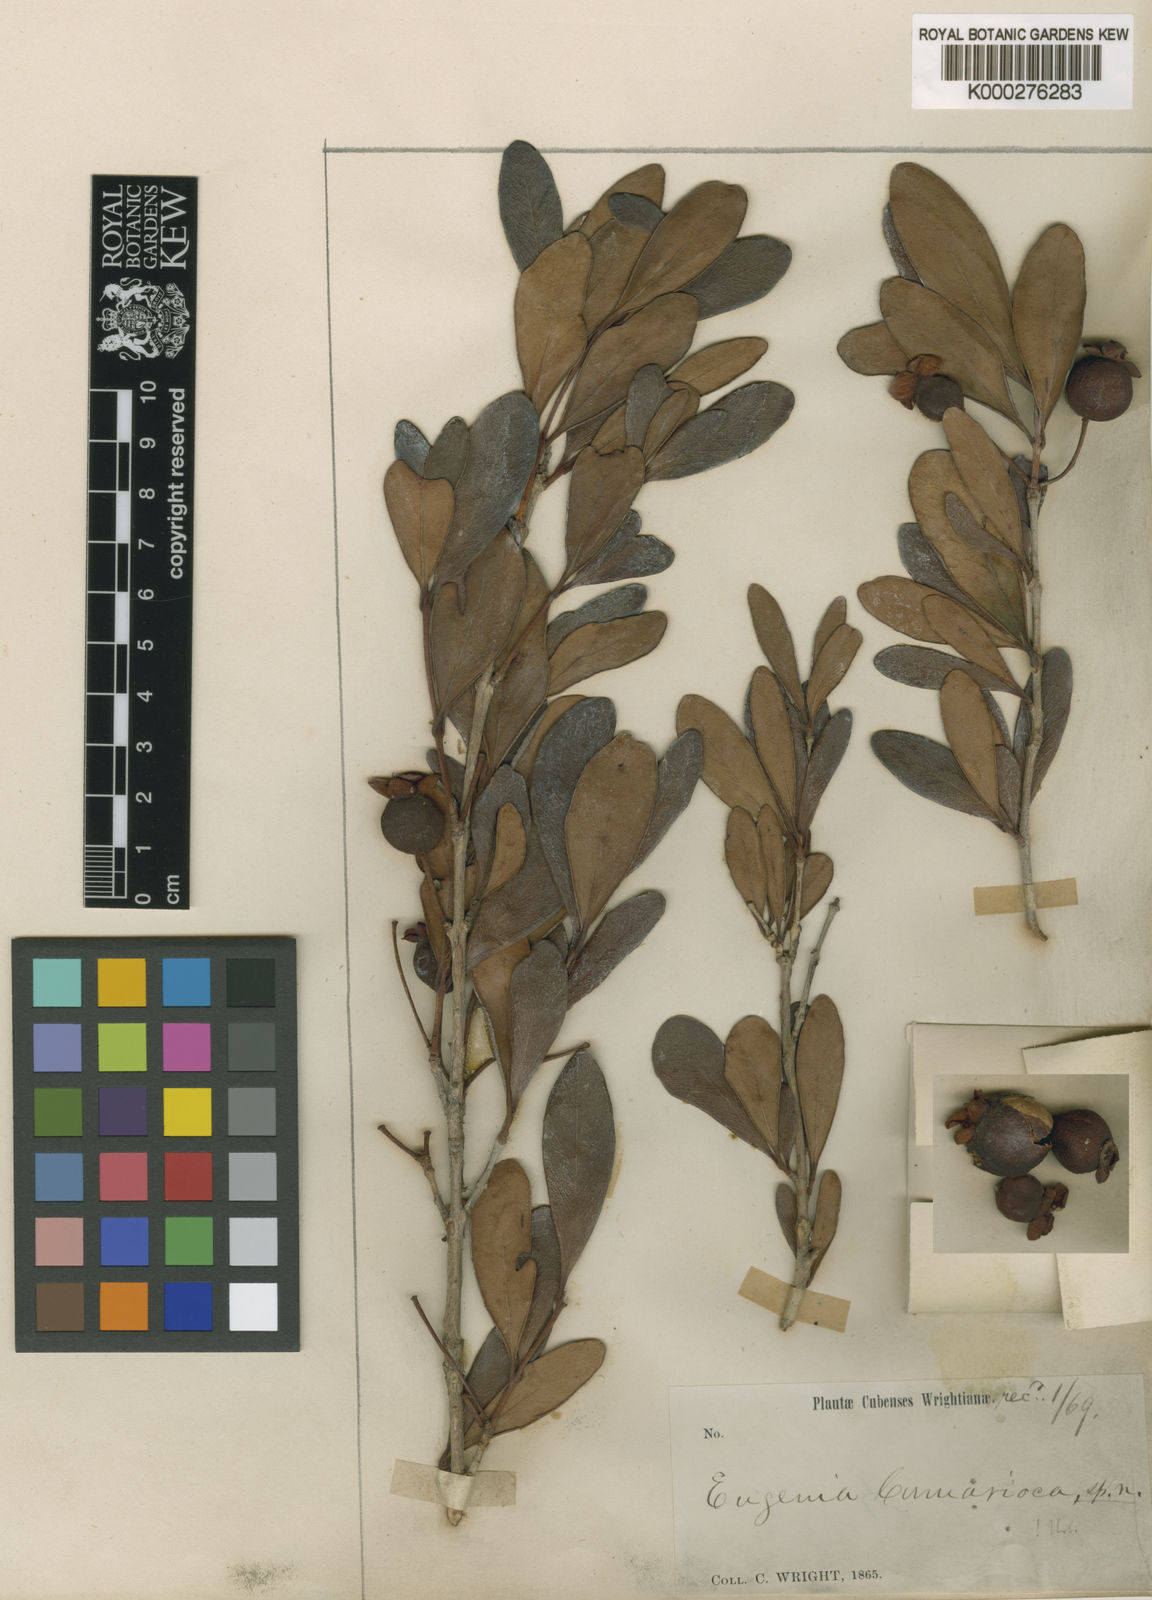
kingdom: Plantae
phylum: Tracheophyta
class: Magnoliopsida
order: Myrtales
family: Myrtaceae
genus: Eugenia
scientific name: Eugenia camarioca
